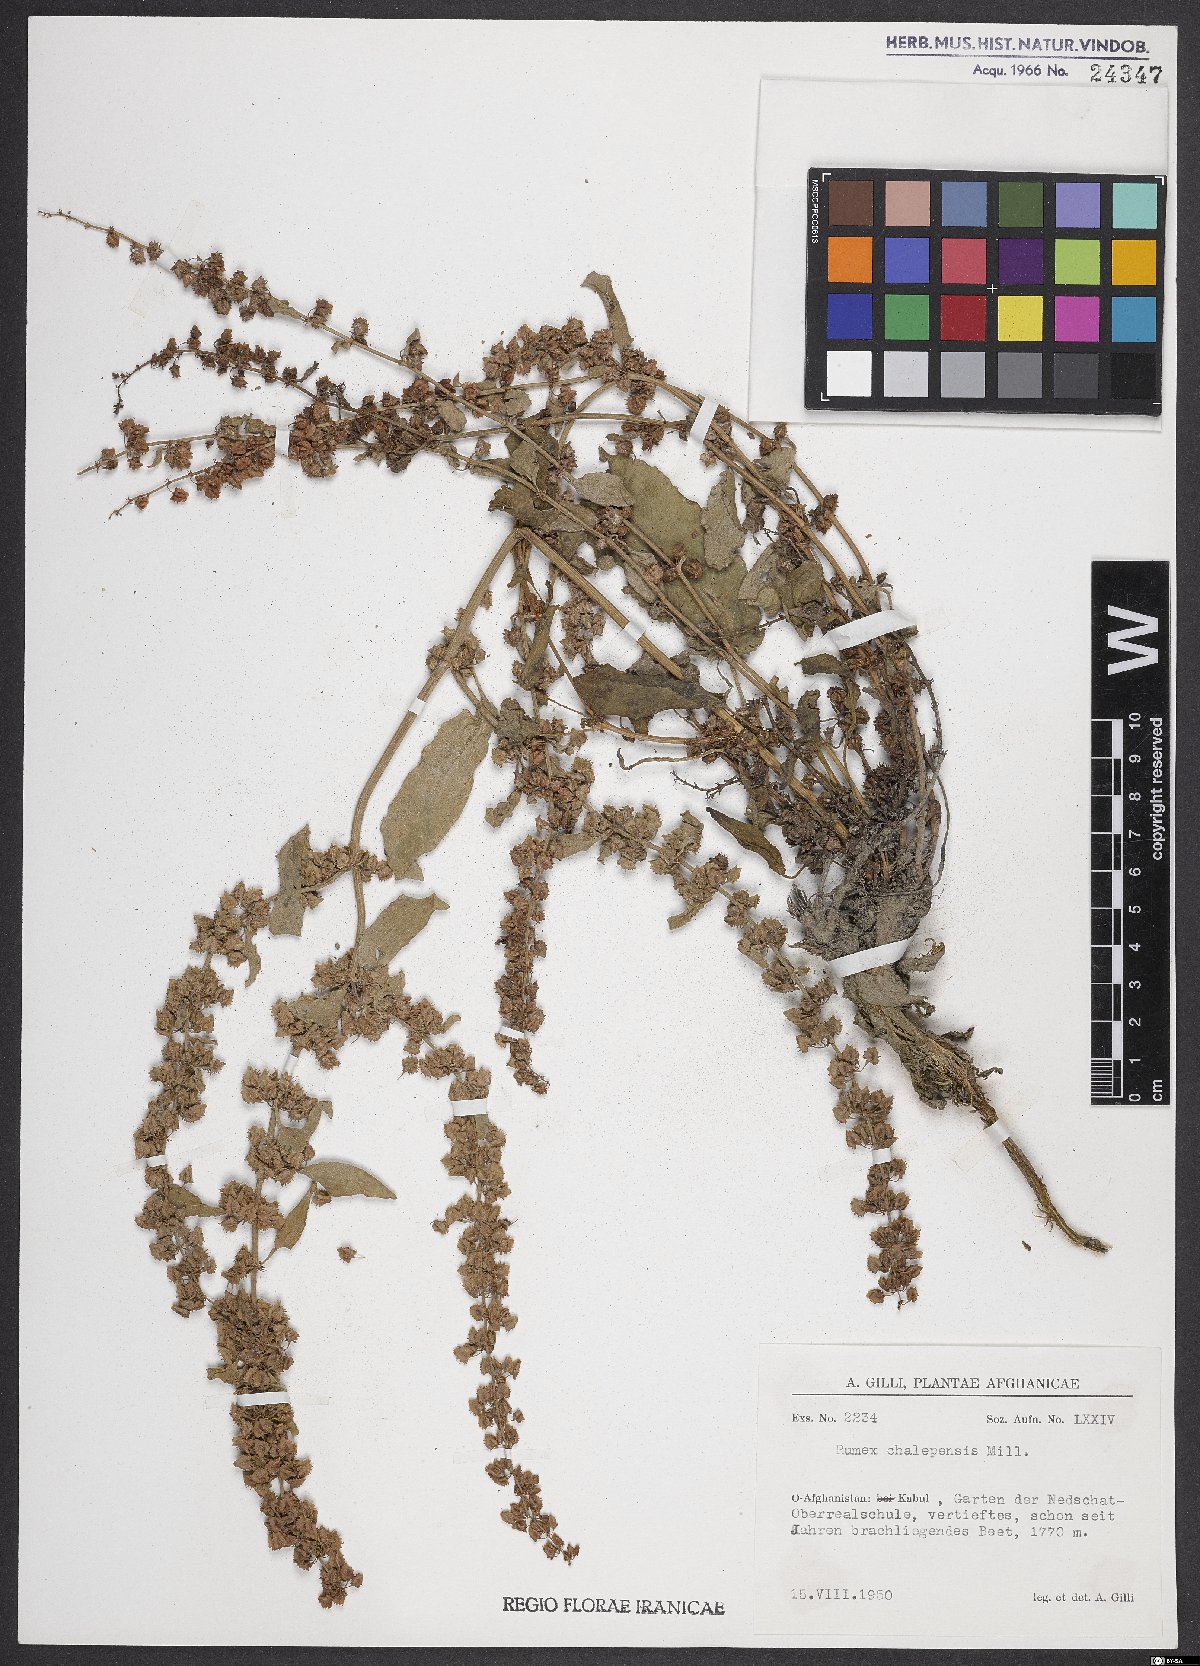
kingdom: Plantae
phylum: Tracheophyta
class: Magnoliopsida
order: Caryophyllales
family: Polygonaceae
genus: Rumex
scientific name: Rumex chalepensis
